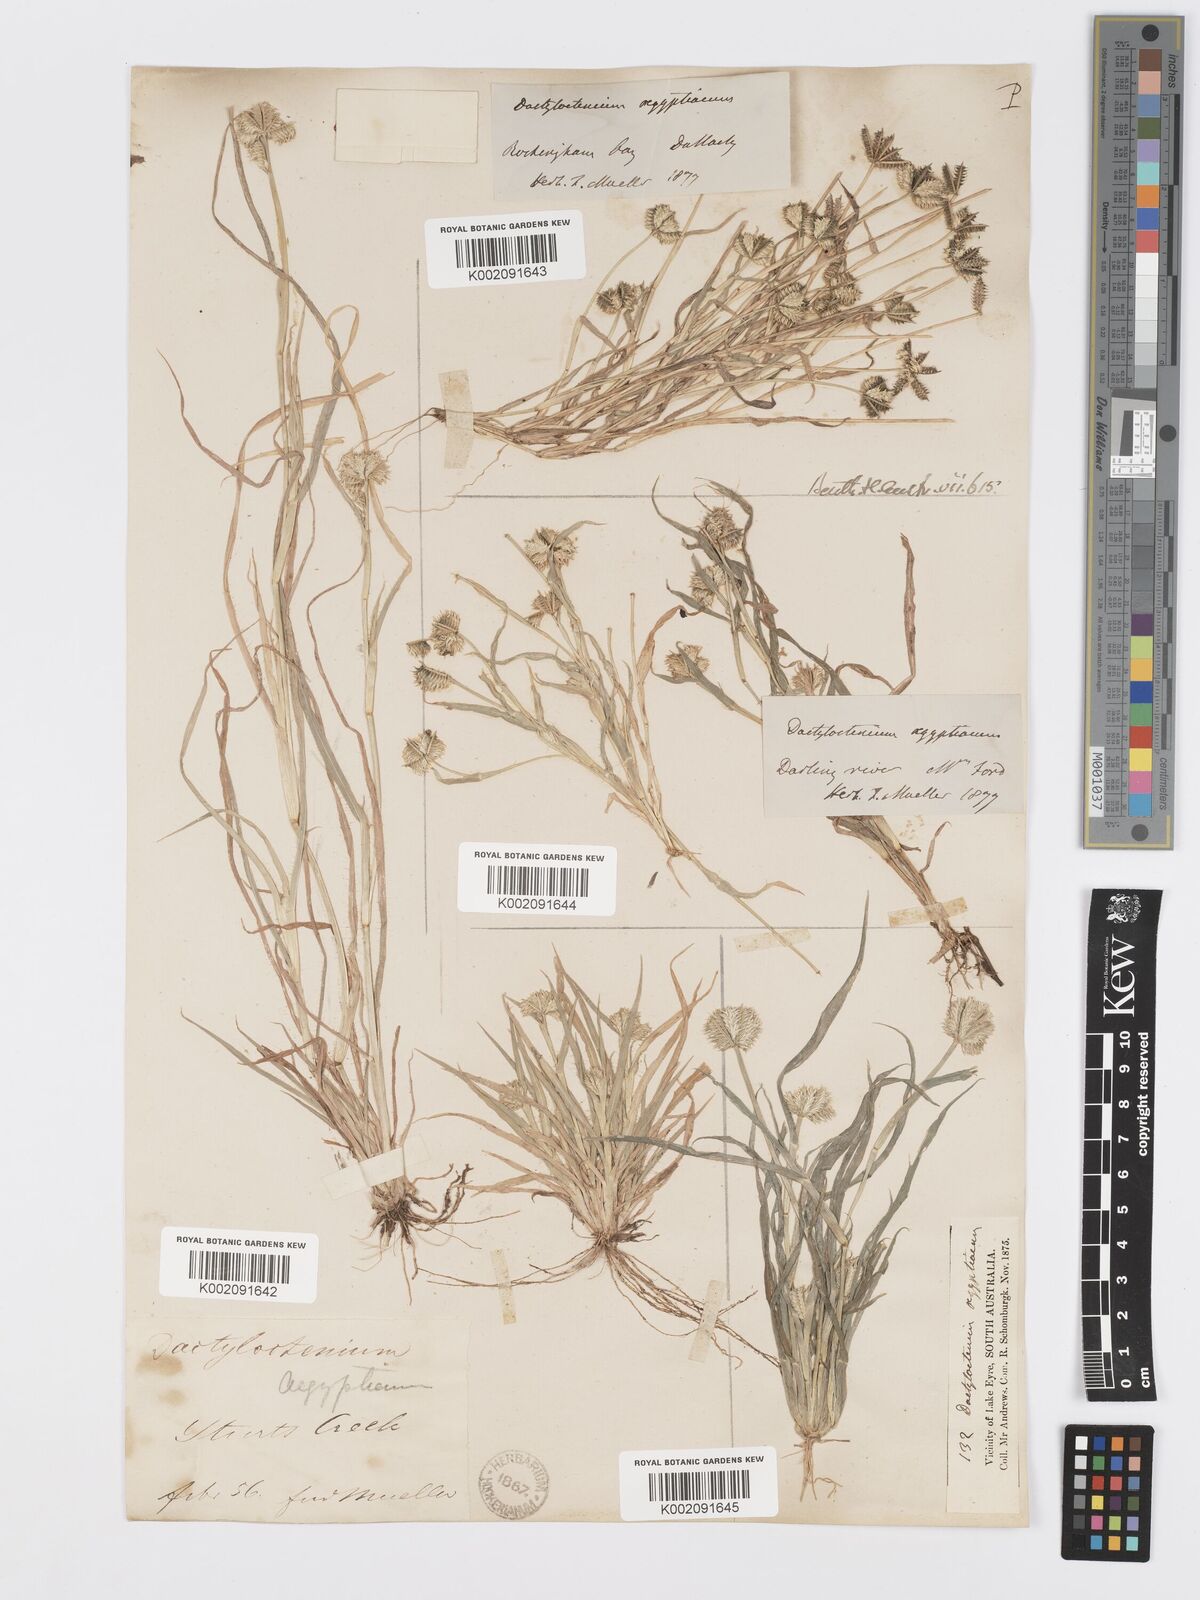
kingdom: Plantae
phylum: Tracheophyta
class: Liliopsida
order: Poales
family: Poaceae
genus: Dactyloctenium
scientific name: Dactyloctenium radulans
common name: Button-grass
